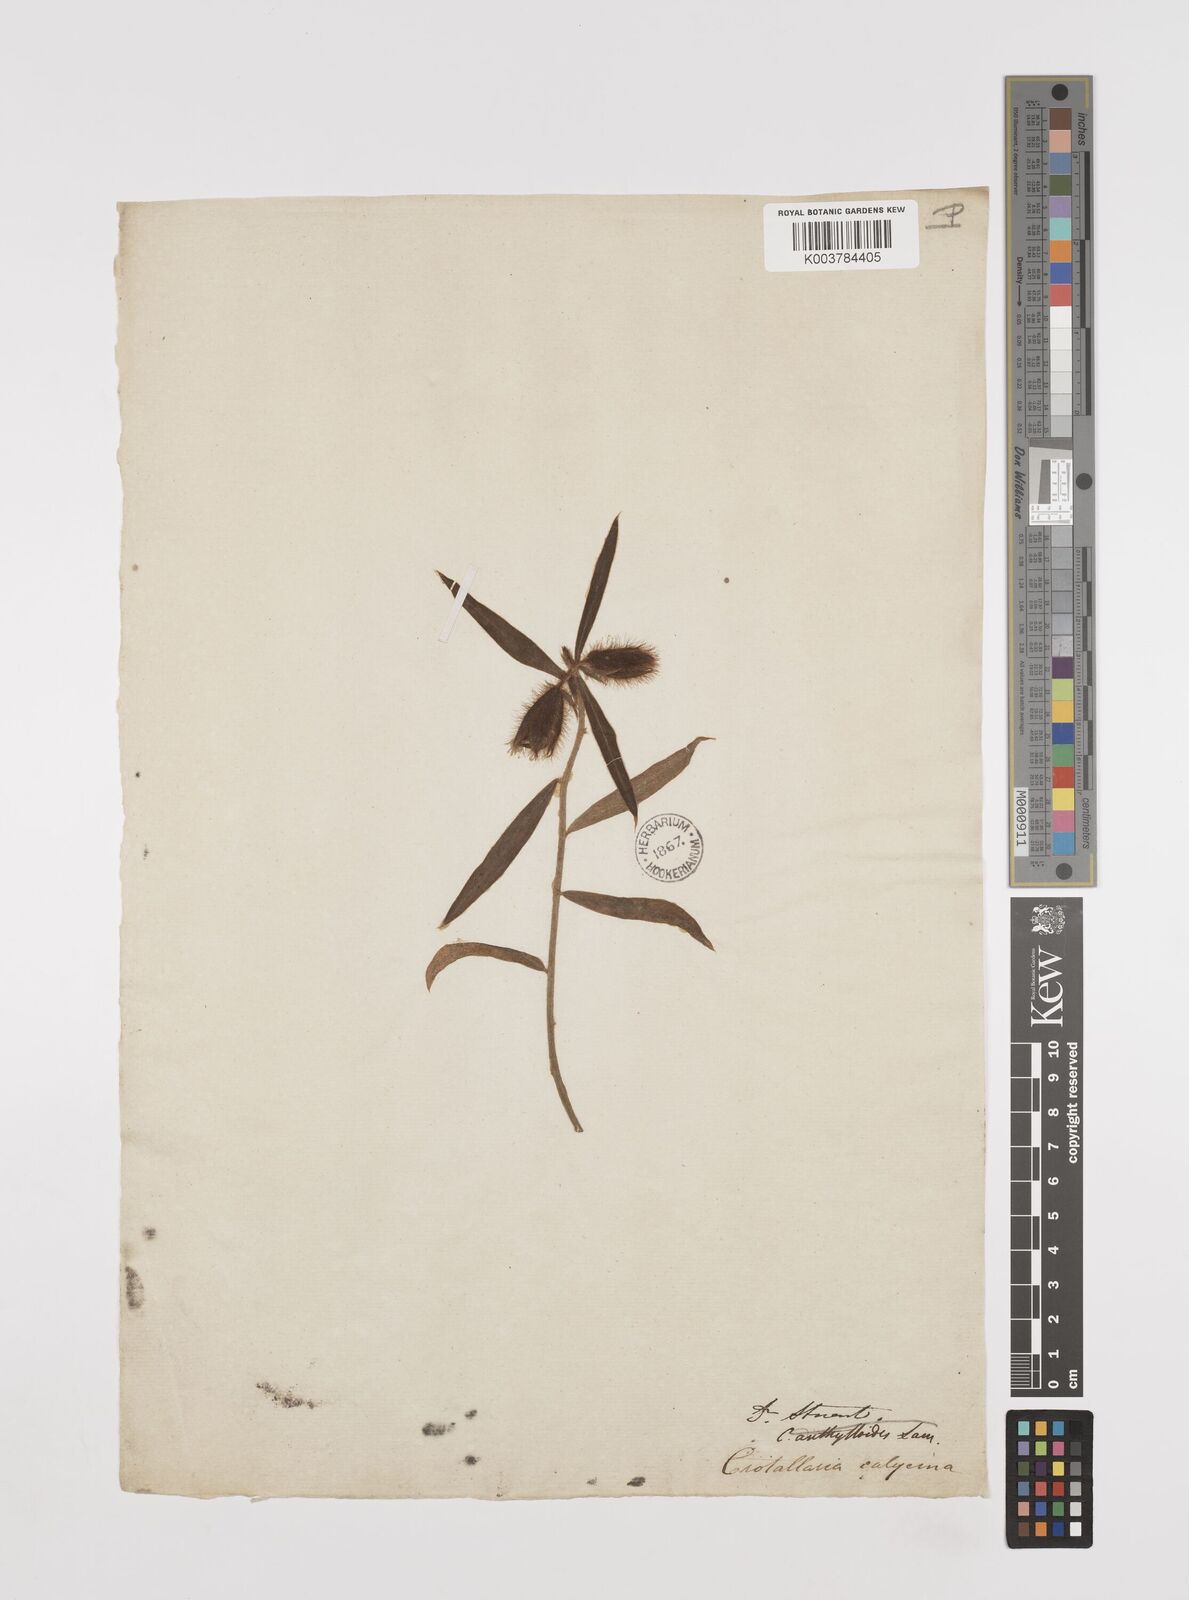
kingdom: Plantae
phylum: Tracheophyta
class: Magnoliopsida
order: Fabales
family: Fabaceae
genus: Crotalaria
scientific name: Crotalaria calycina
